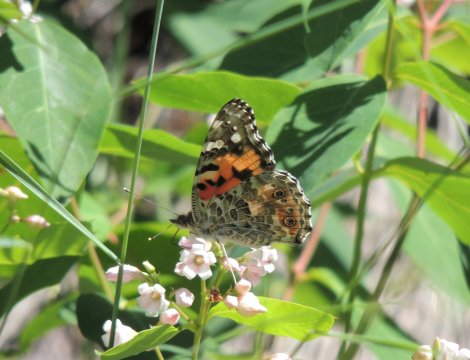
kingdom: Animalia
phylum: Arthropoda
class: Insecta
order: Lepidoptera
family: Nymphalidae
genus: Vanessa
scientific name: Vanessa cardui
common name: Painted Lady
